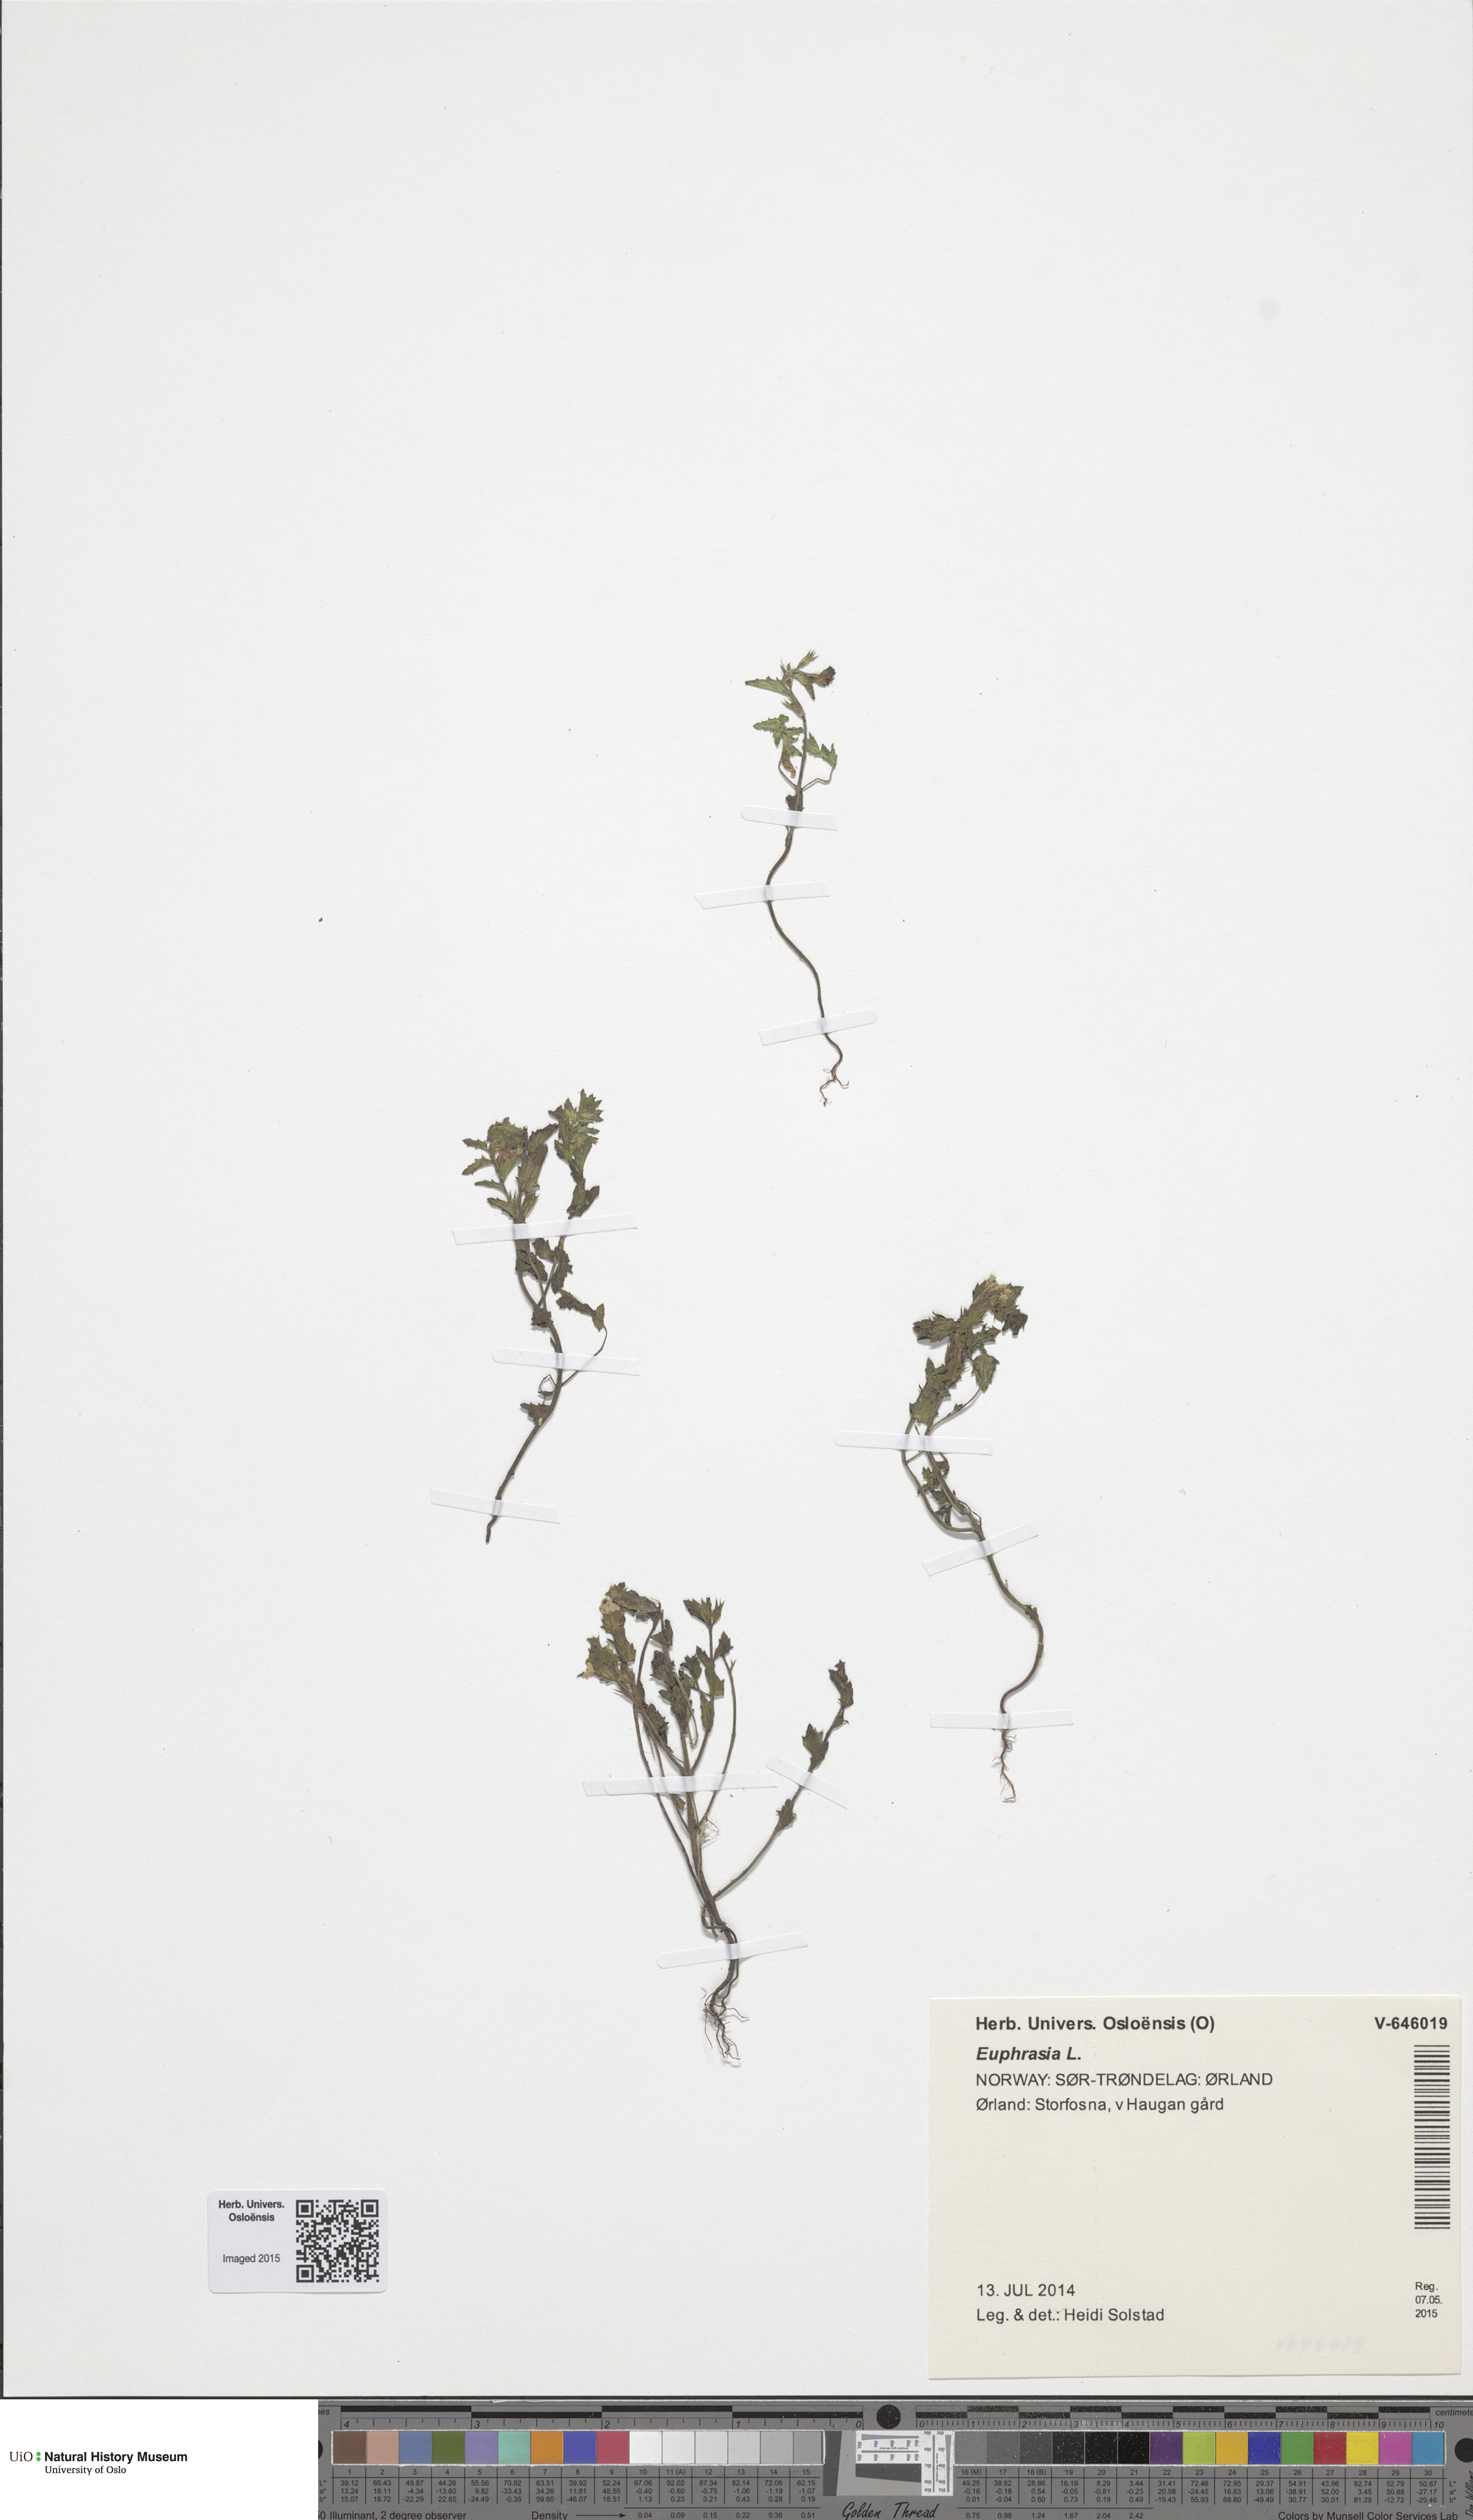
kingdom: Plantae
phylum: Tracheophyta
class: Magnoliopsida
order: Lamiales
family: Orobanchaceae
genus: Euphrasia
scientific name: Euphrasia
